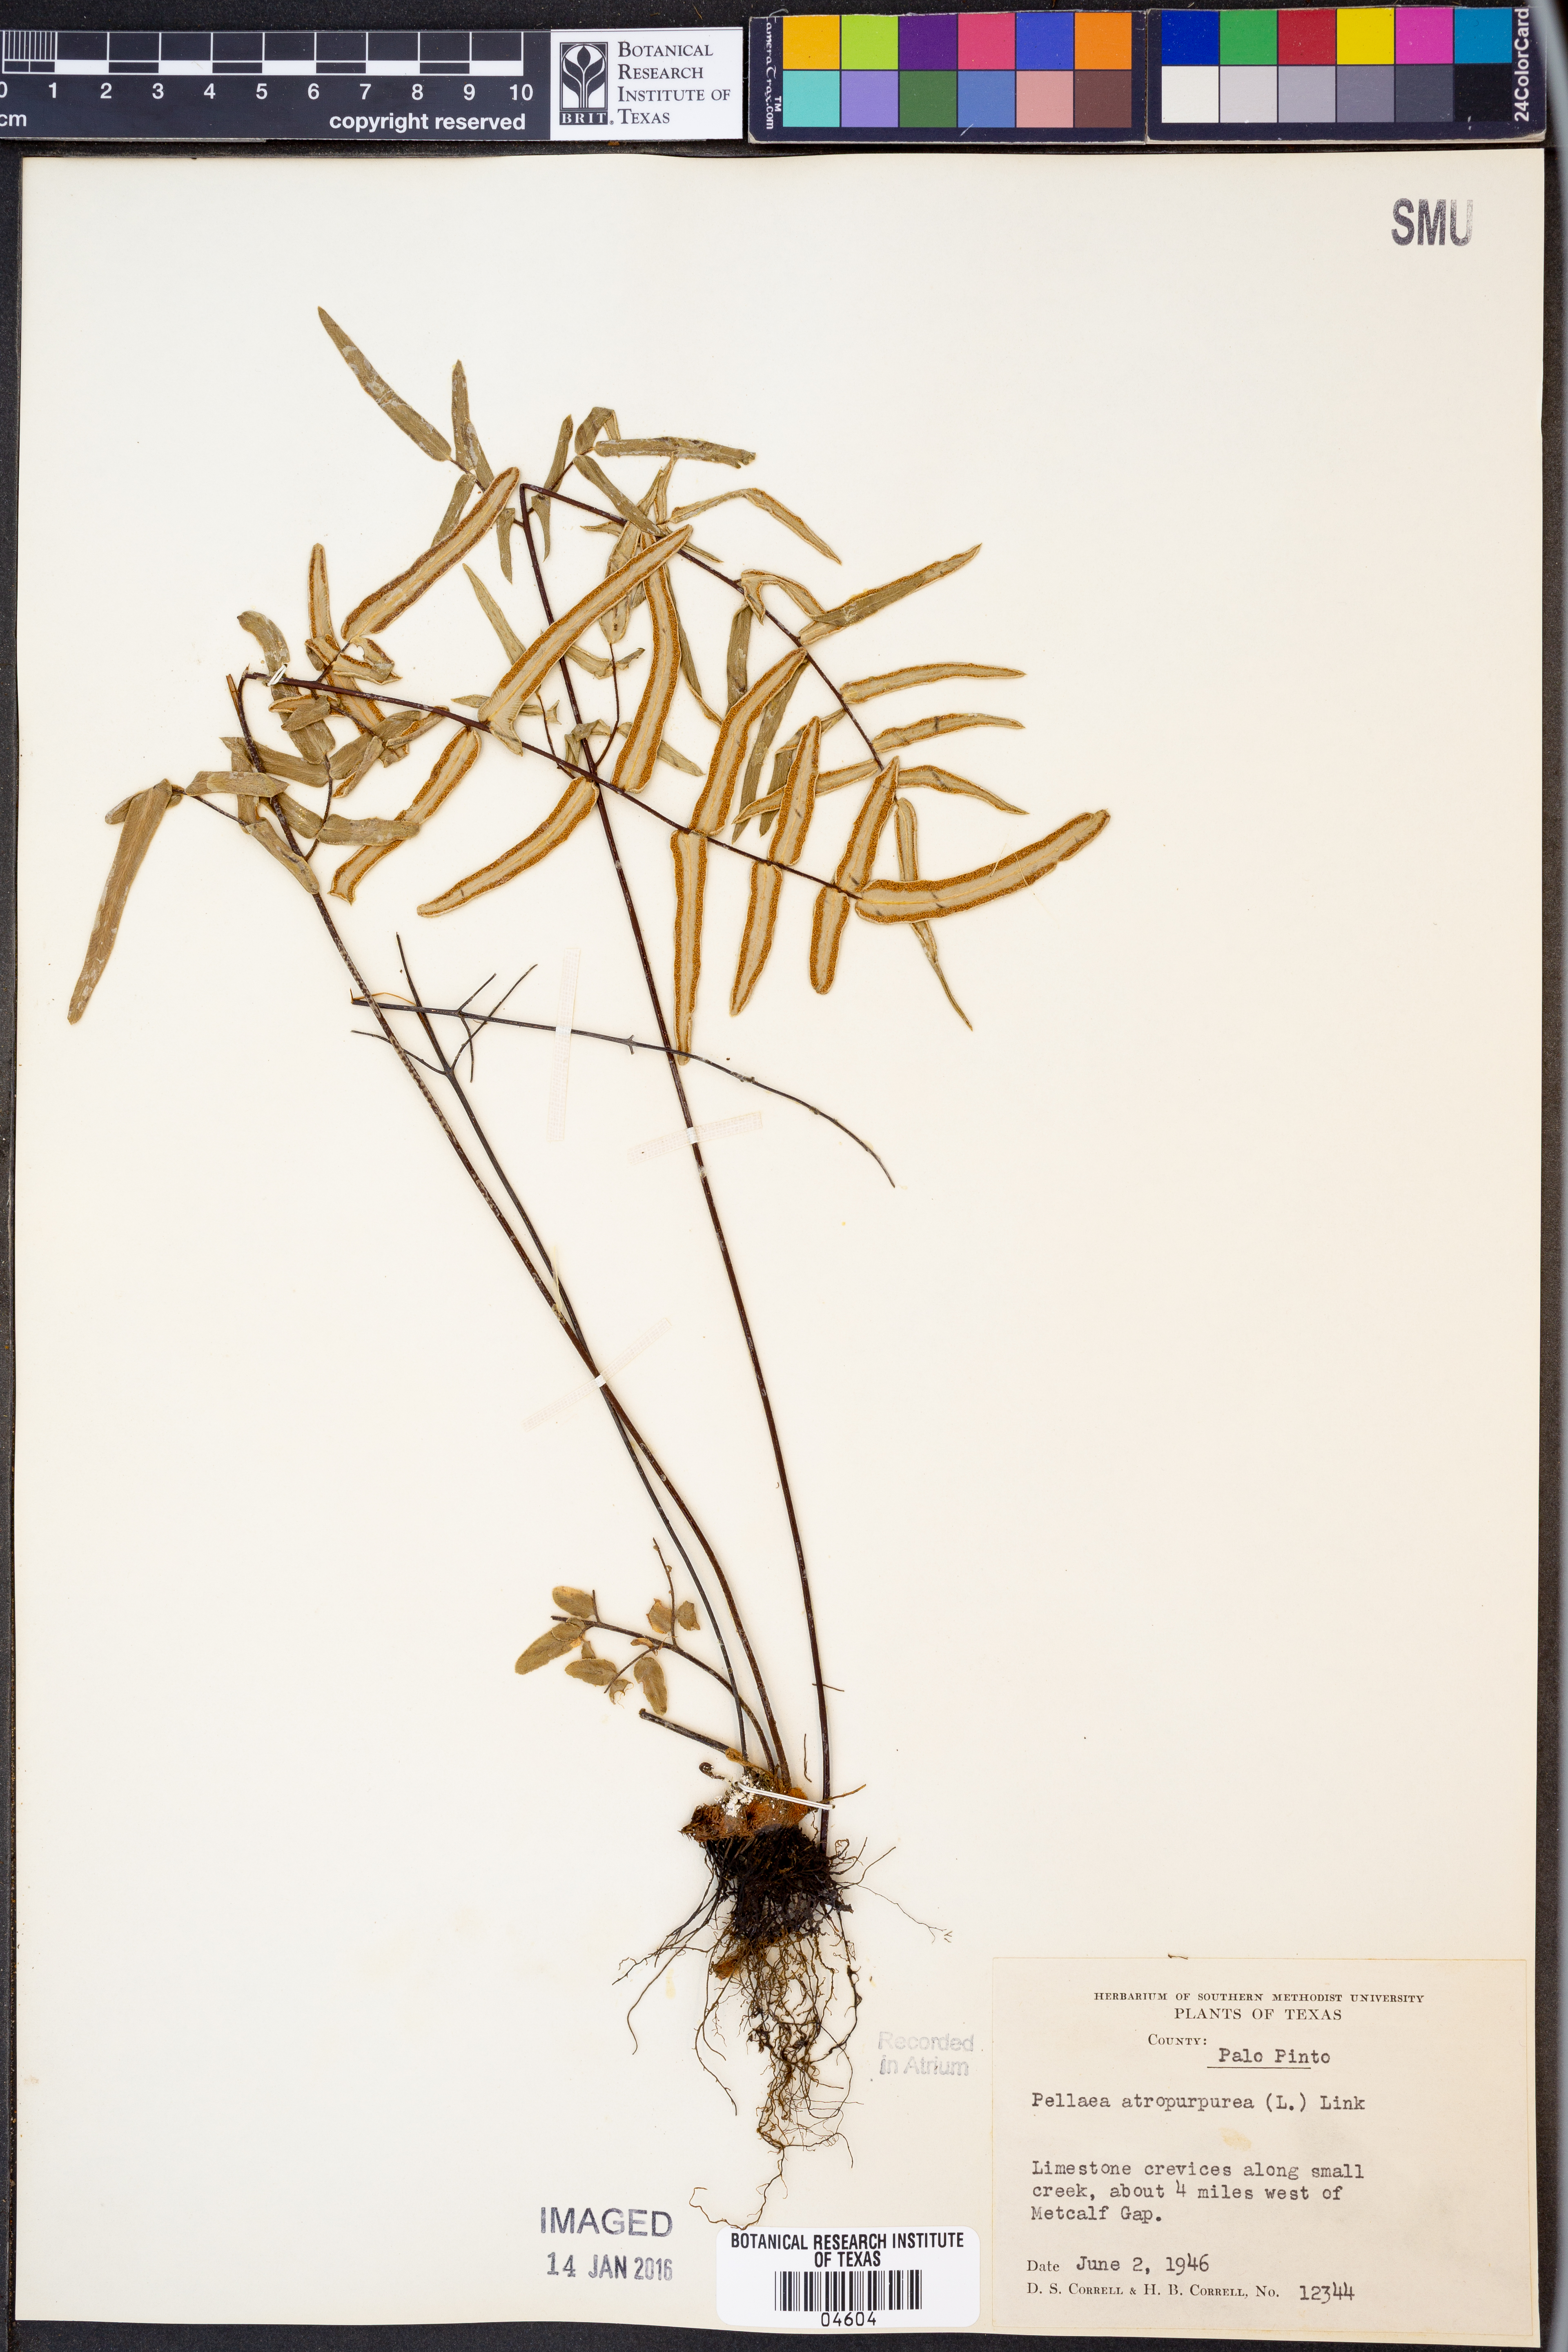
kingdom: Plantae
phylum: Tracheophyta
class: Polypodiopsida
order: Polypodiales
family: Pteridaceae
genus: Pellaea
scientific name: Pellaea atropurpurea
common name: Hairy cliffbrake
